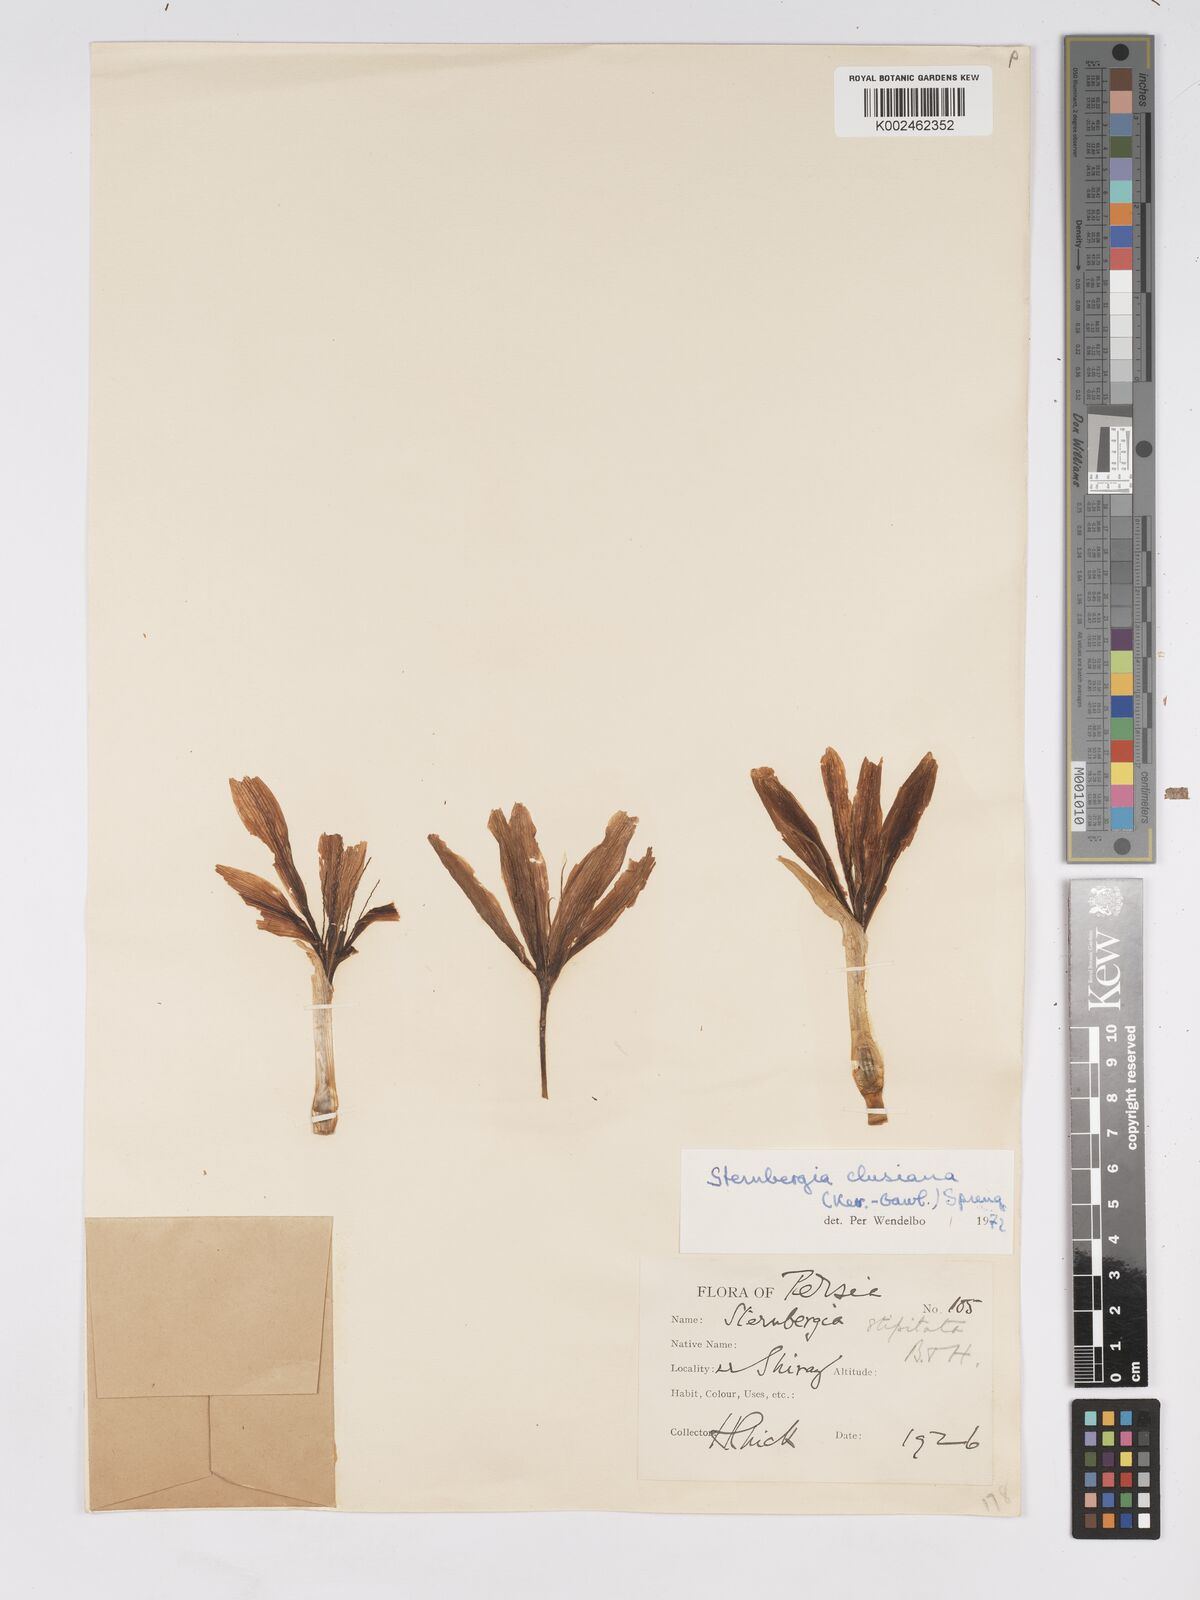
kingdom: Plantae
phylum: Tracheophyta
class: Liliopsida
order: Asparagales
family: Amaryllidaceae
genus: Sternbergia
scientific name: Sternbergia clusiana
